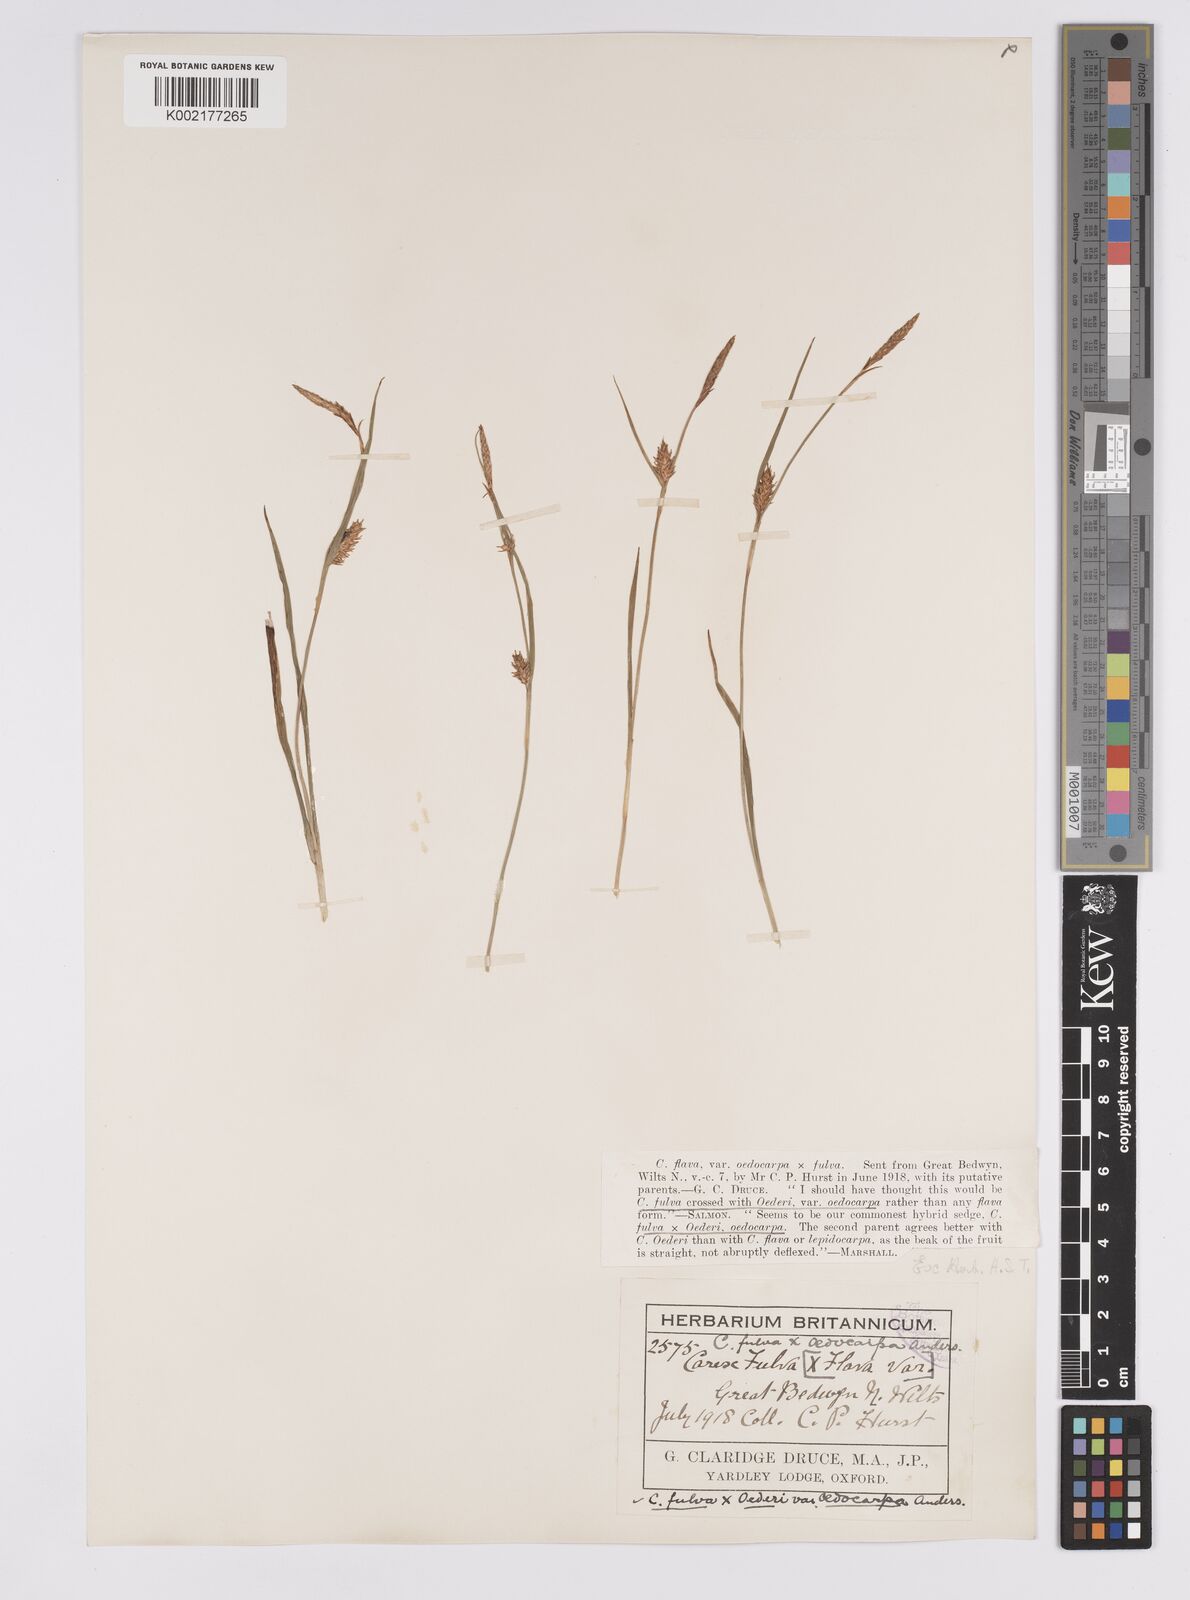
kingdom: Plantae
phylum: Tracheophyta
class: Liliopsida
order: Poales
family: Cyperaceae
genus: Carex
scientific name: Carex hostiana
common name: Tawny sedge
